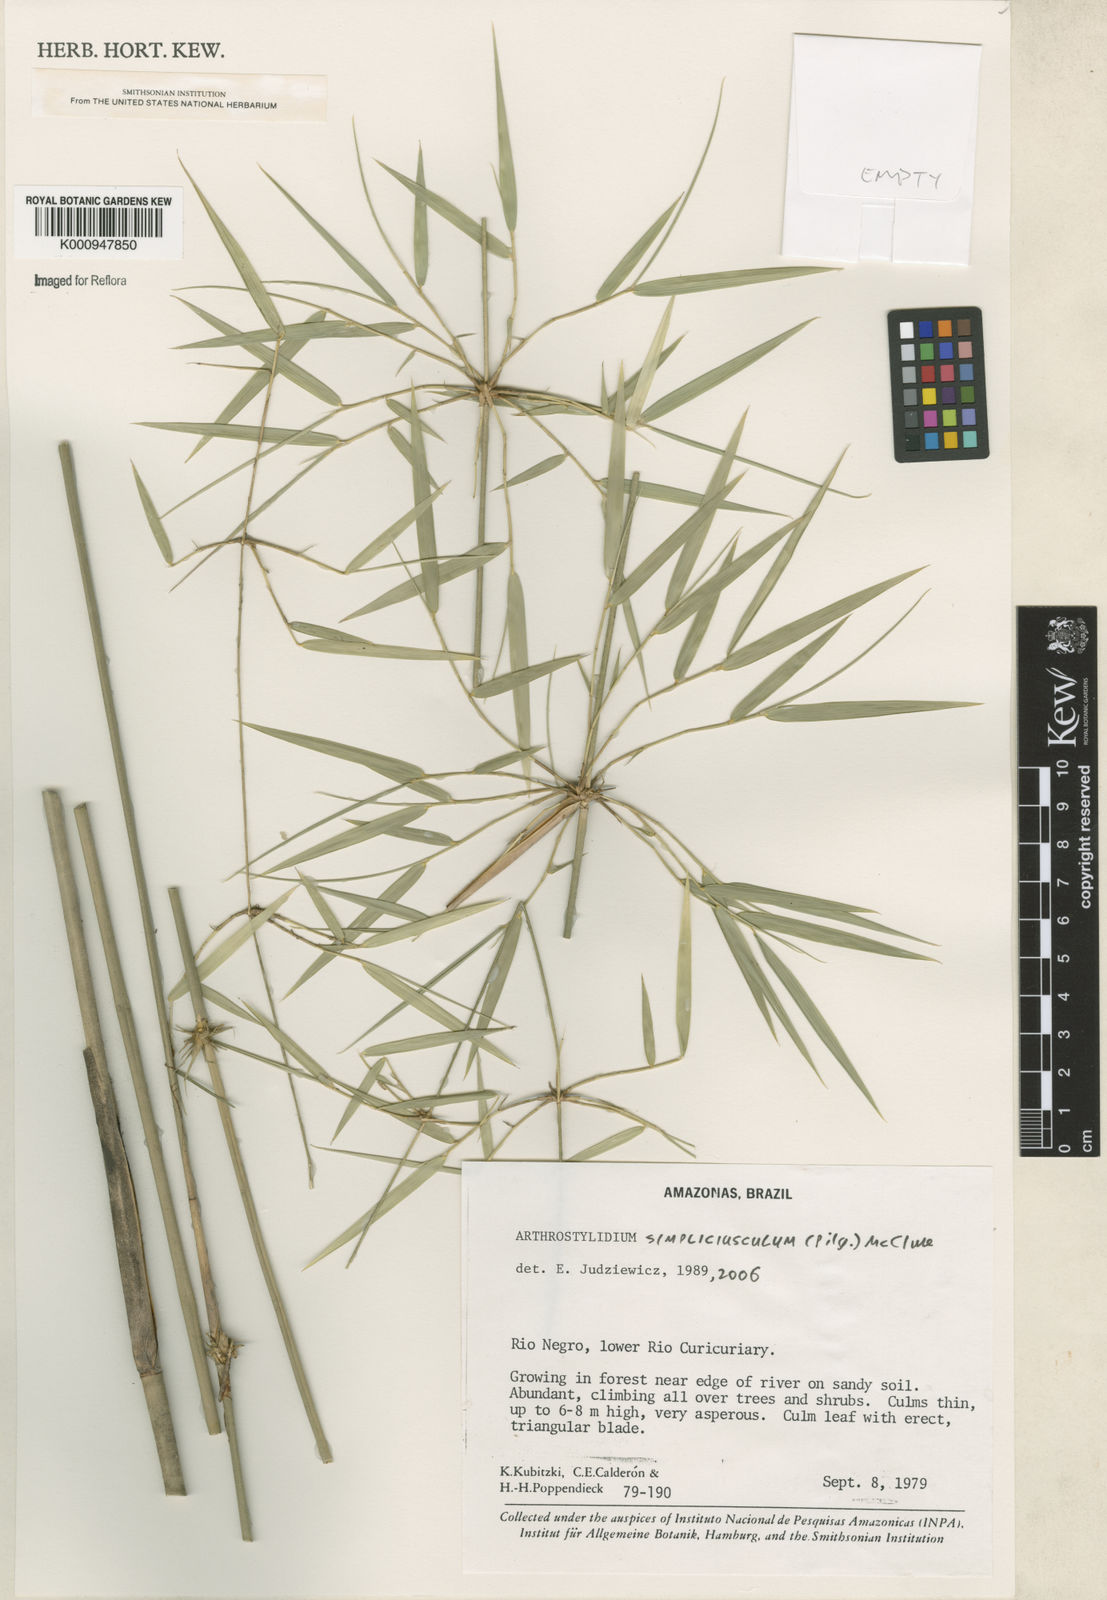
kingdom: Plantae
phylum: Tracheophyta
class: Liliopsida
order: Poales
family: Poaceae
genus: Arthrostylidium
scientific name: Arthrostylidium simpliciusculum
